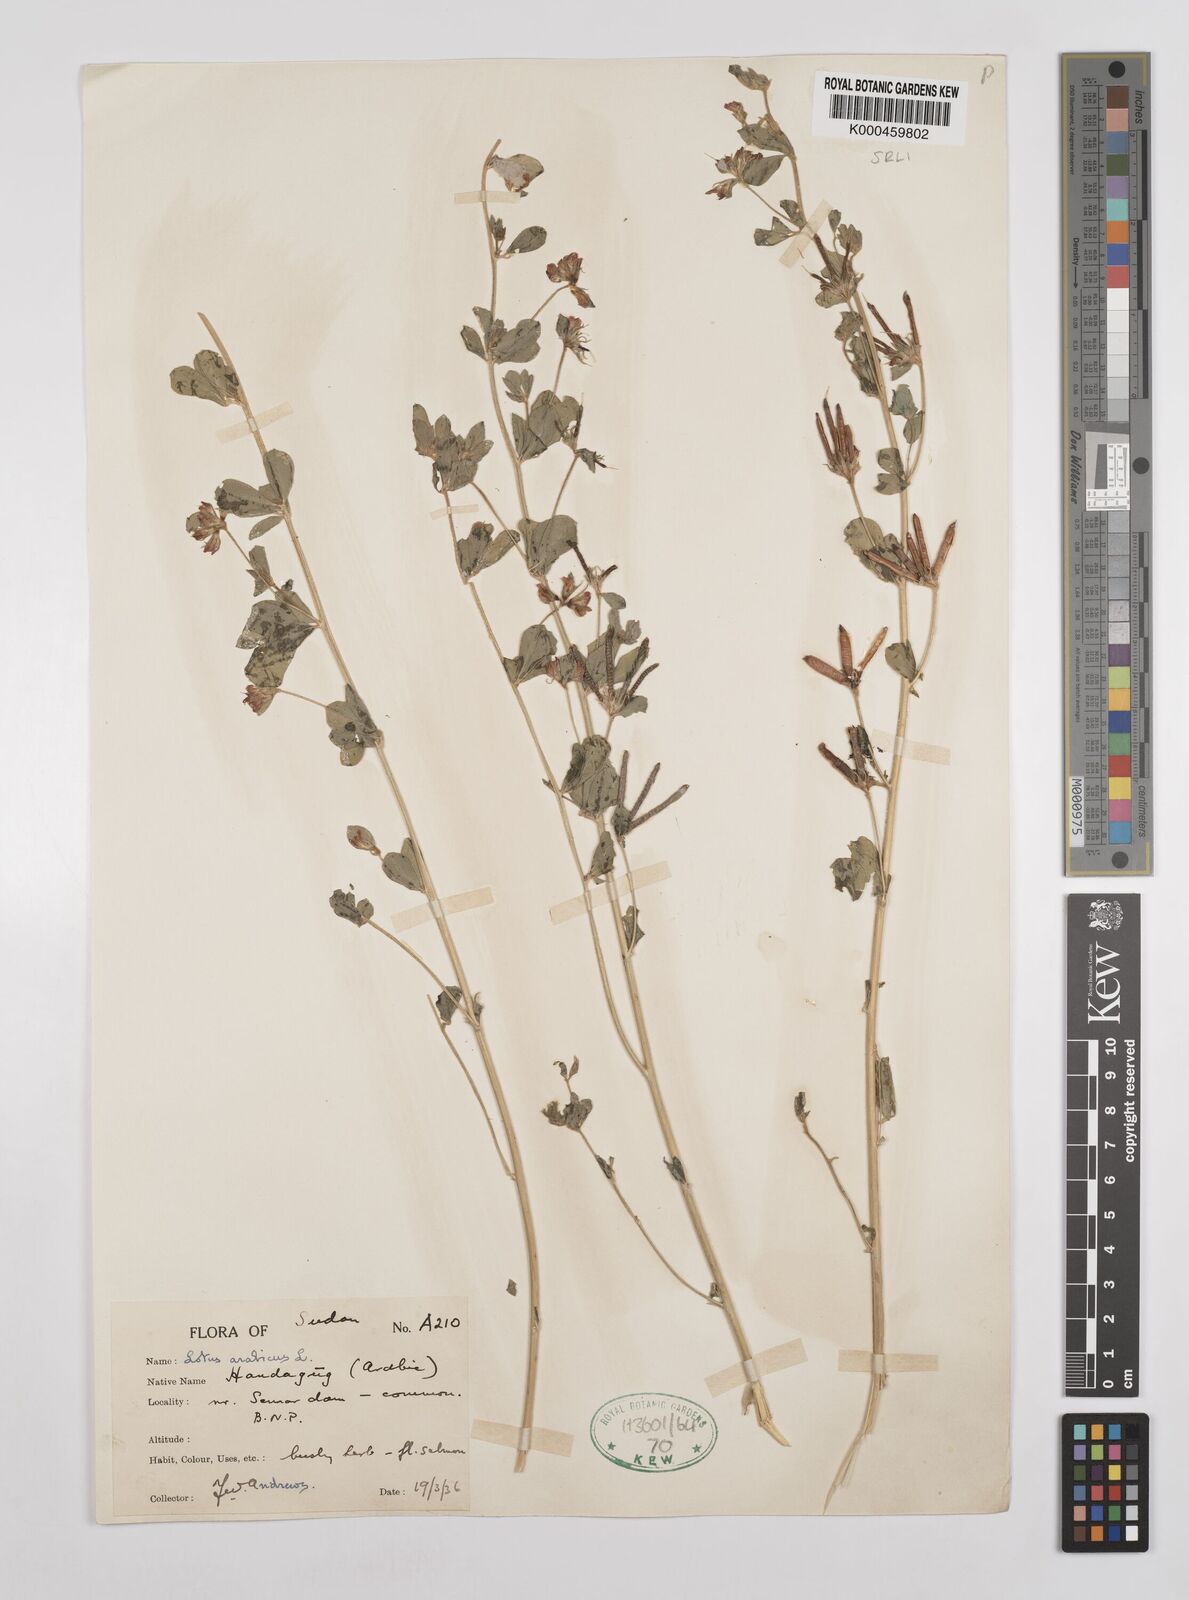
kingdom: Plantae
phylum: Tracheophyta
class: Magnoliopsida
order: Fabales
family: Fabaceae
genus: Lotus
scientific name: Lotus arabicus
